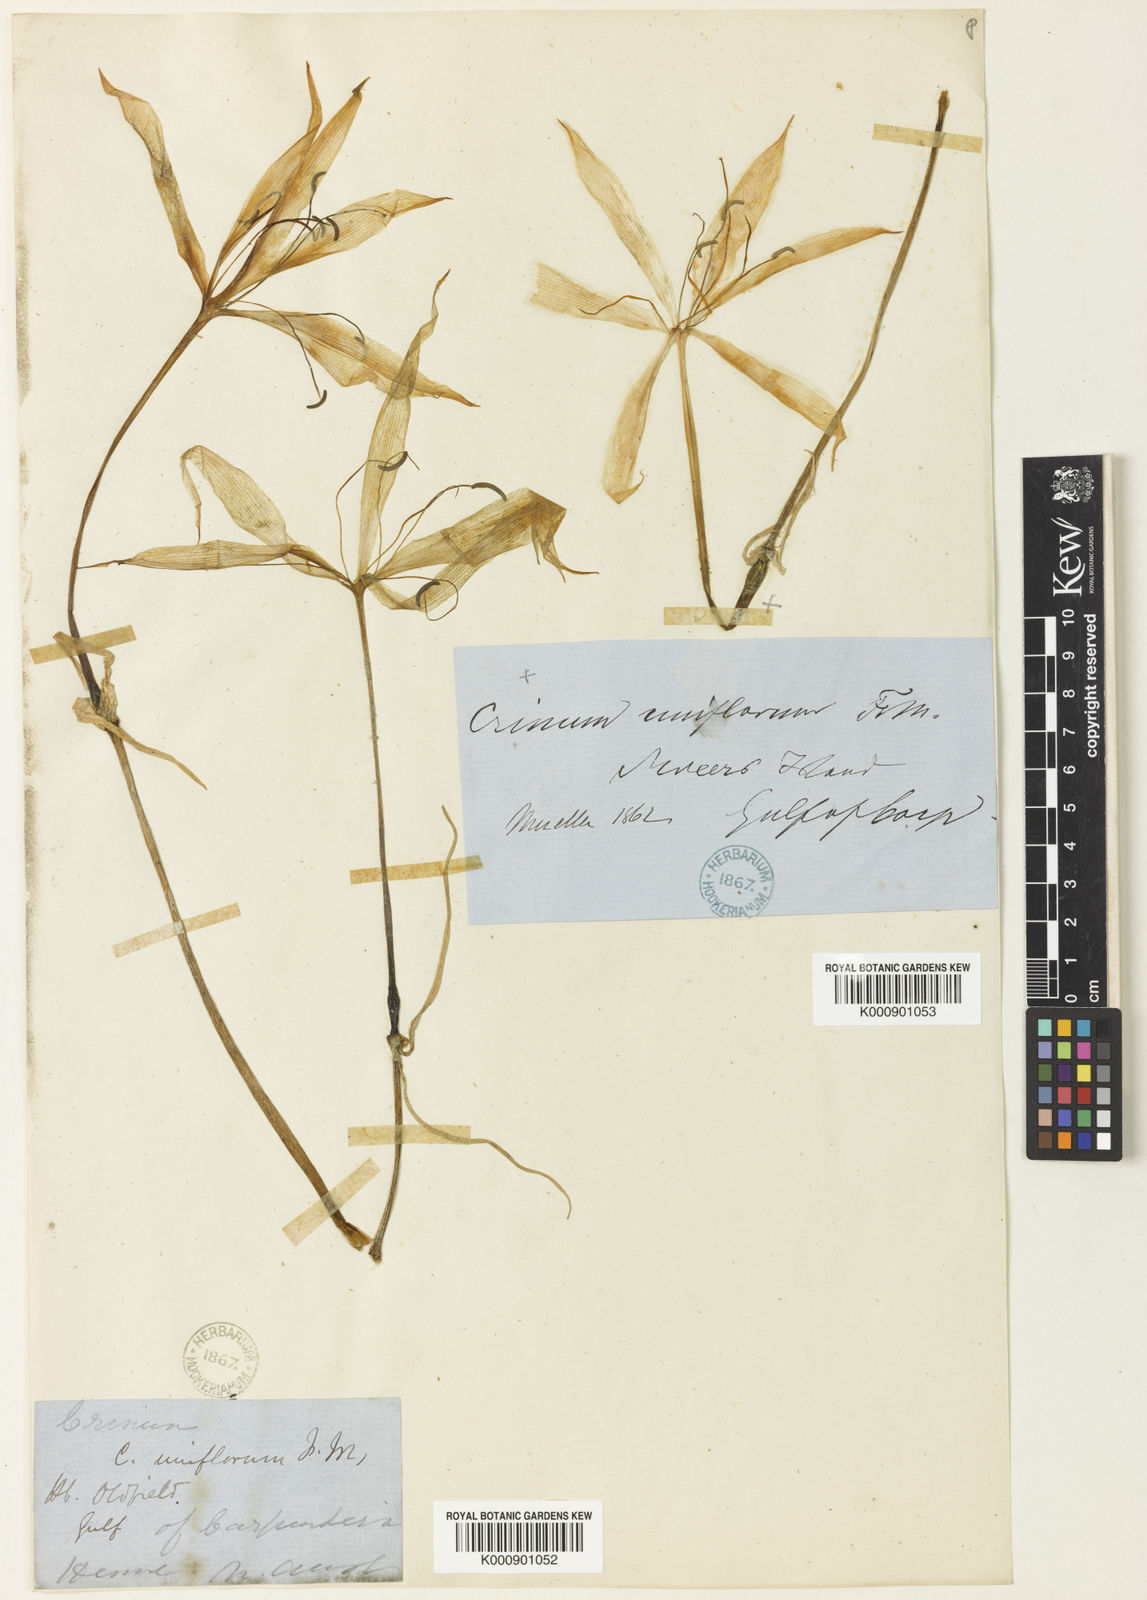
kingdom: Plantae
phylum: Tracheophyta
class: Liliopsida
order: Asparagales
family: Amaryllidaceae
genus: Crinum
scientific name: Crinum uniflorum
